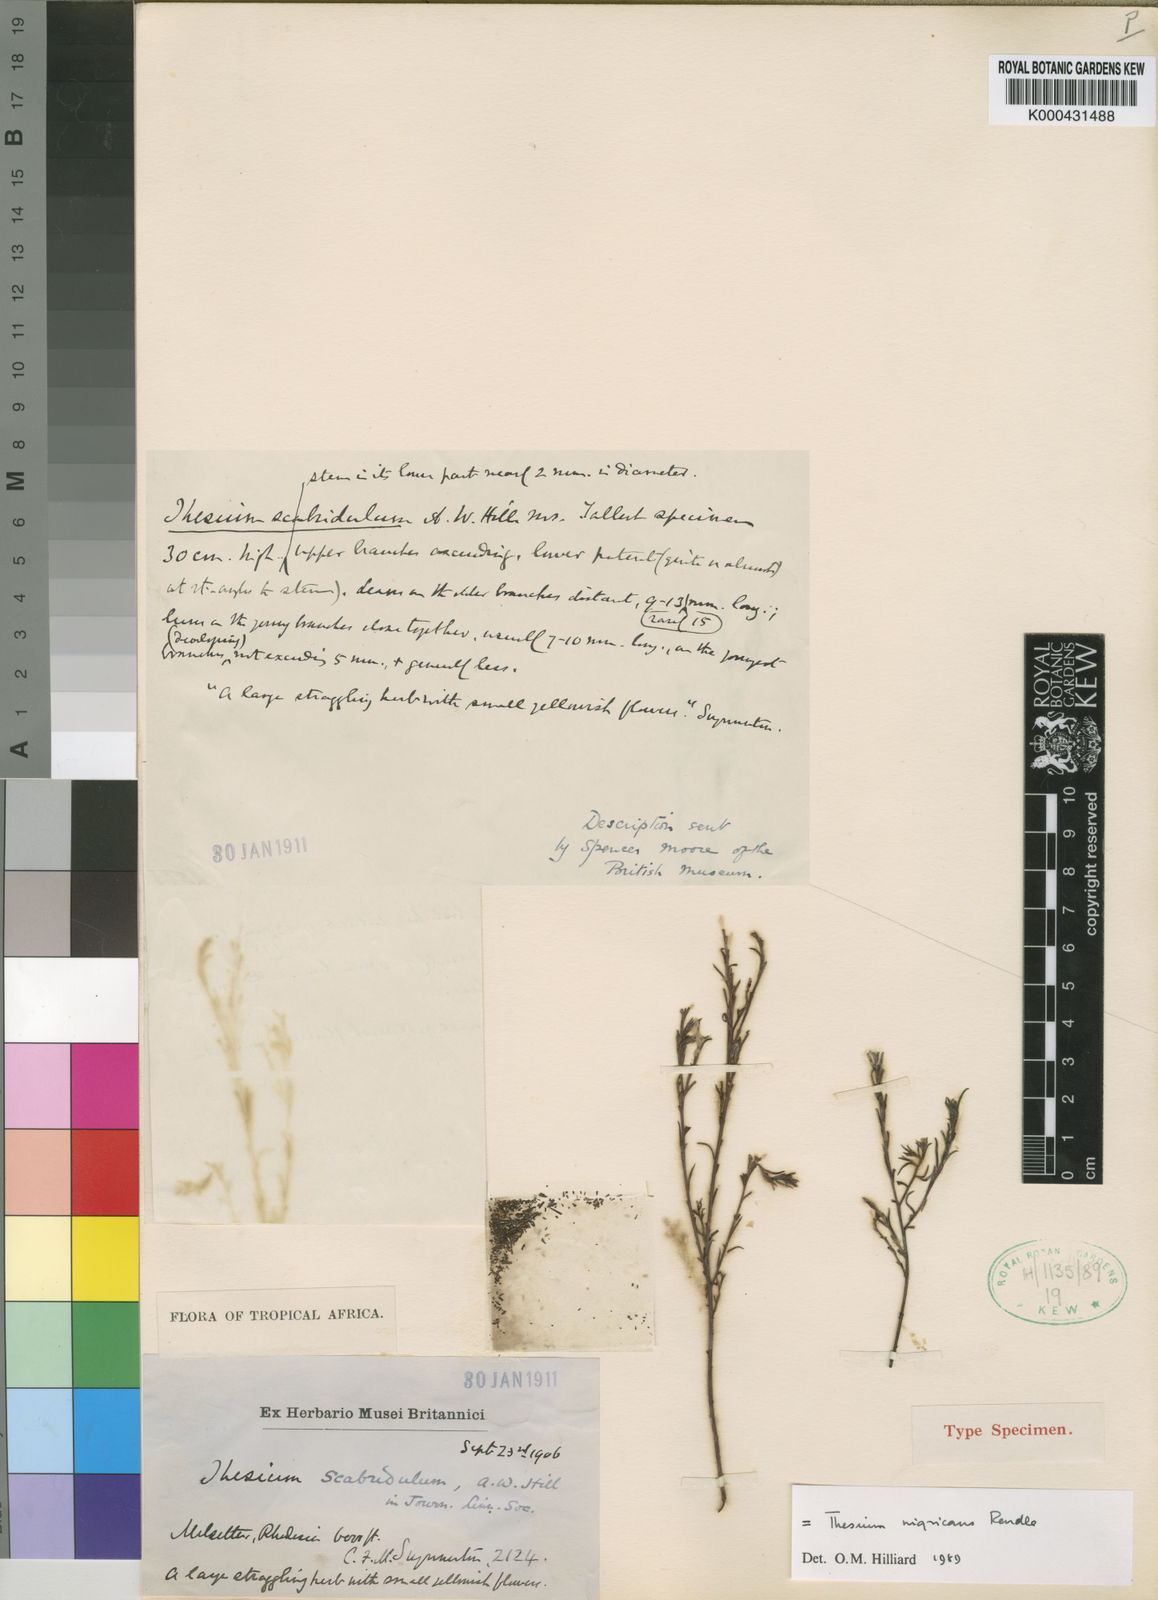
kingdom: Plantae
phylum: Tracheophyta
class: Magnoliopsida
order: Santalales
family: Thesiaceae
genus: Thesium
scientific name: Thesium nigricans
